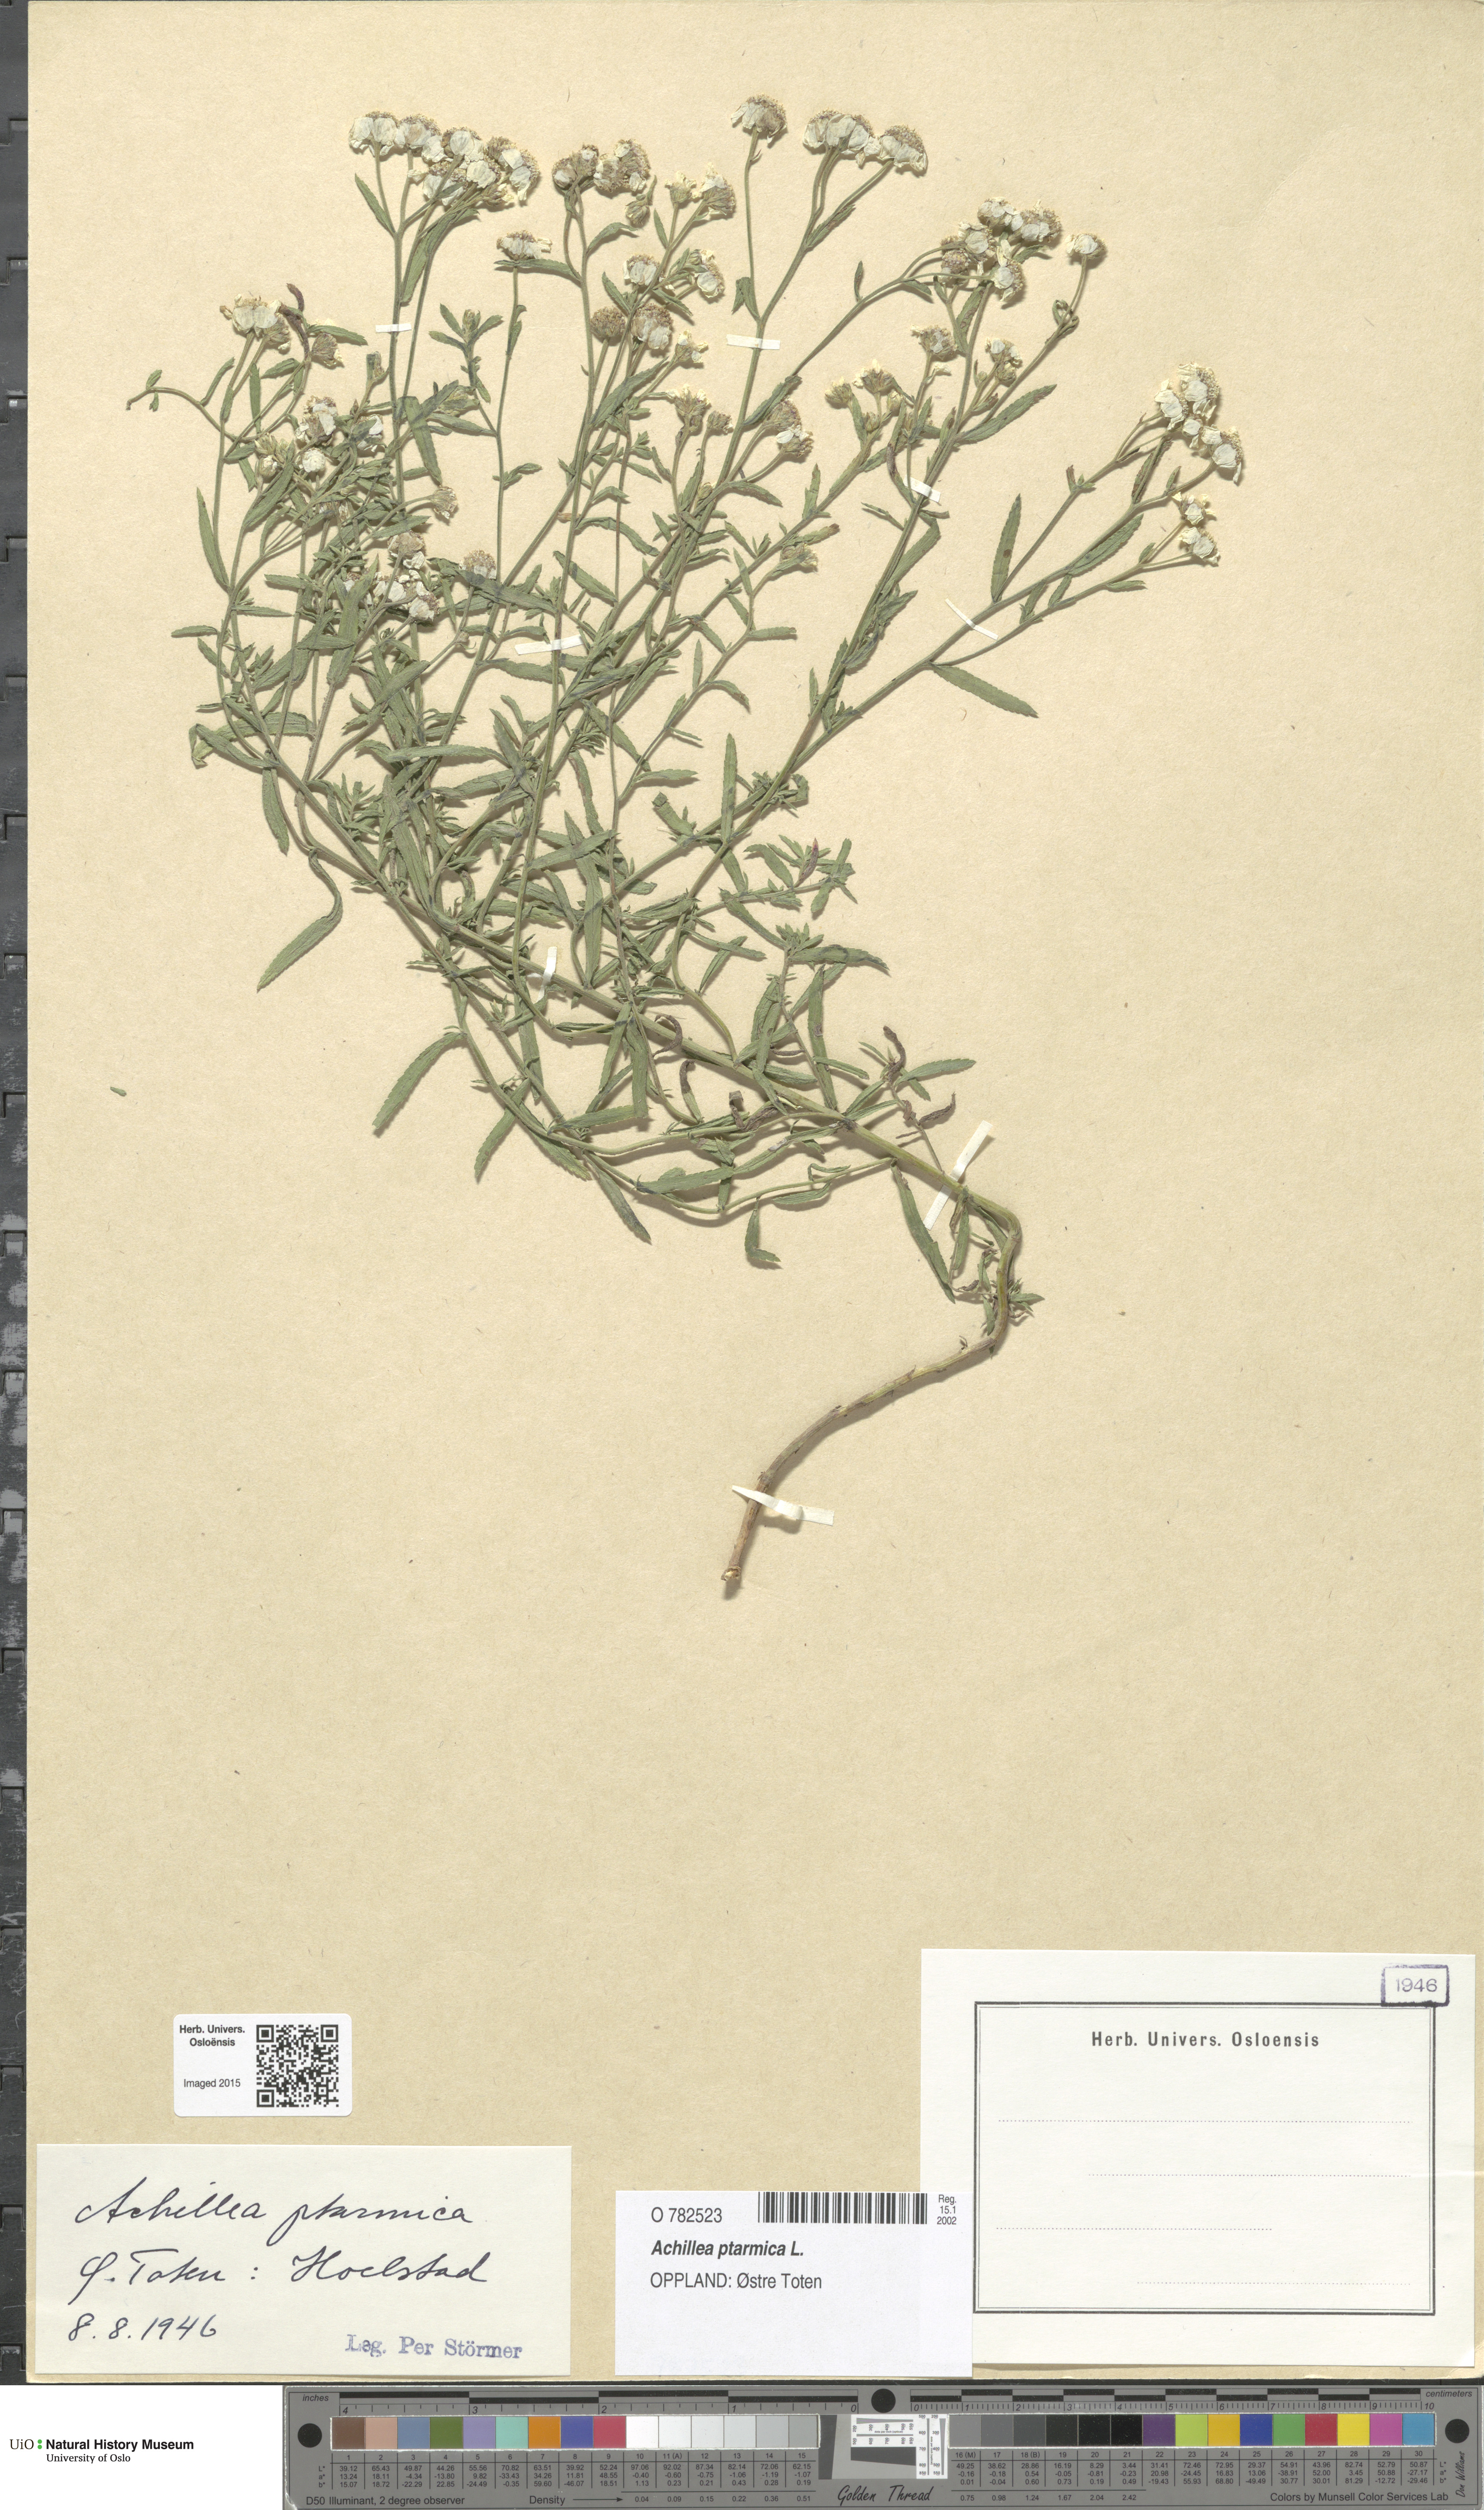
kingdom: Plantae
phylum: Tracheophyta
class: Magnoliopsida
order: Asterales
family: Asteraceae
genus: Achillea
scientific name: Achillea ptarmica
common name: Sneezeweed
